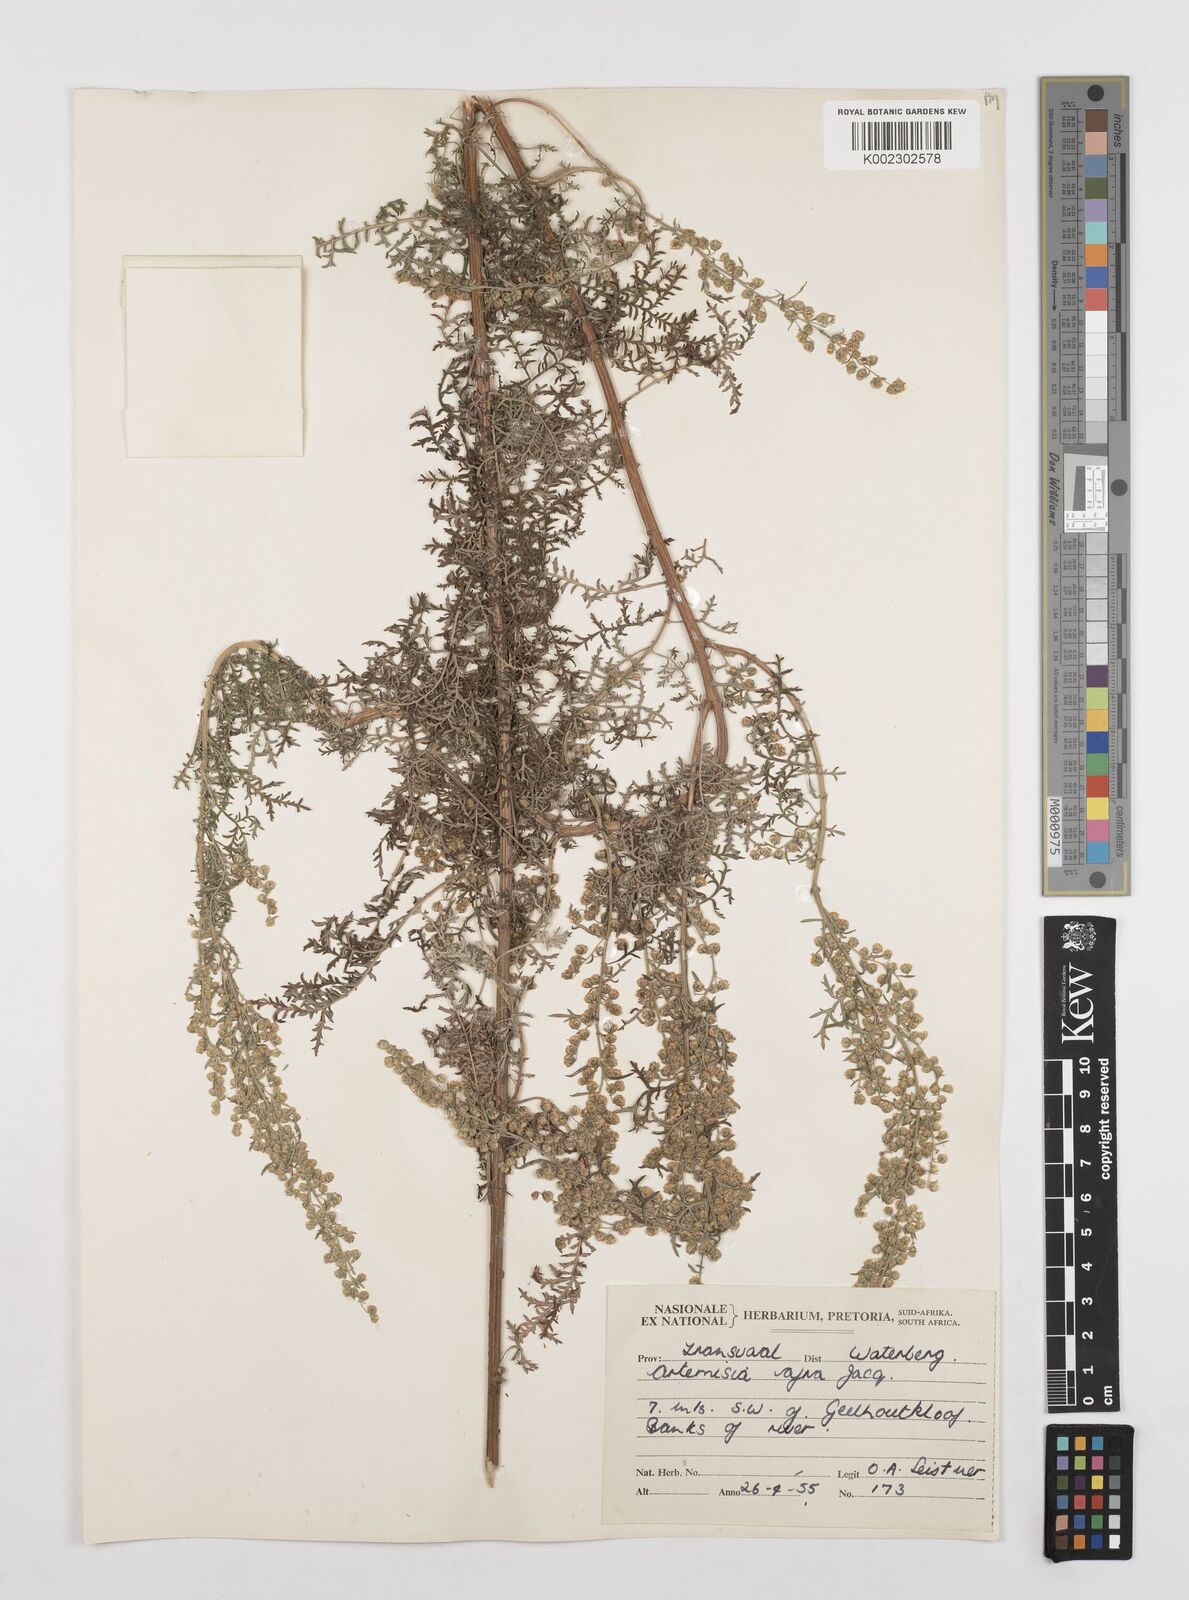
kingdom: Plantae
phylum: Tracheophyta
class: Magnoliopsida
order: Asterales
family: Asteraceae
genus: Artemisia
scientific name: Artemisia afra
